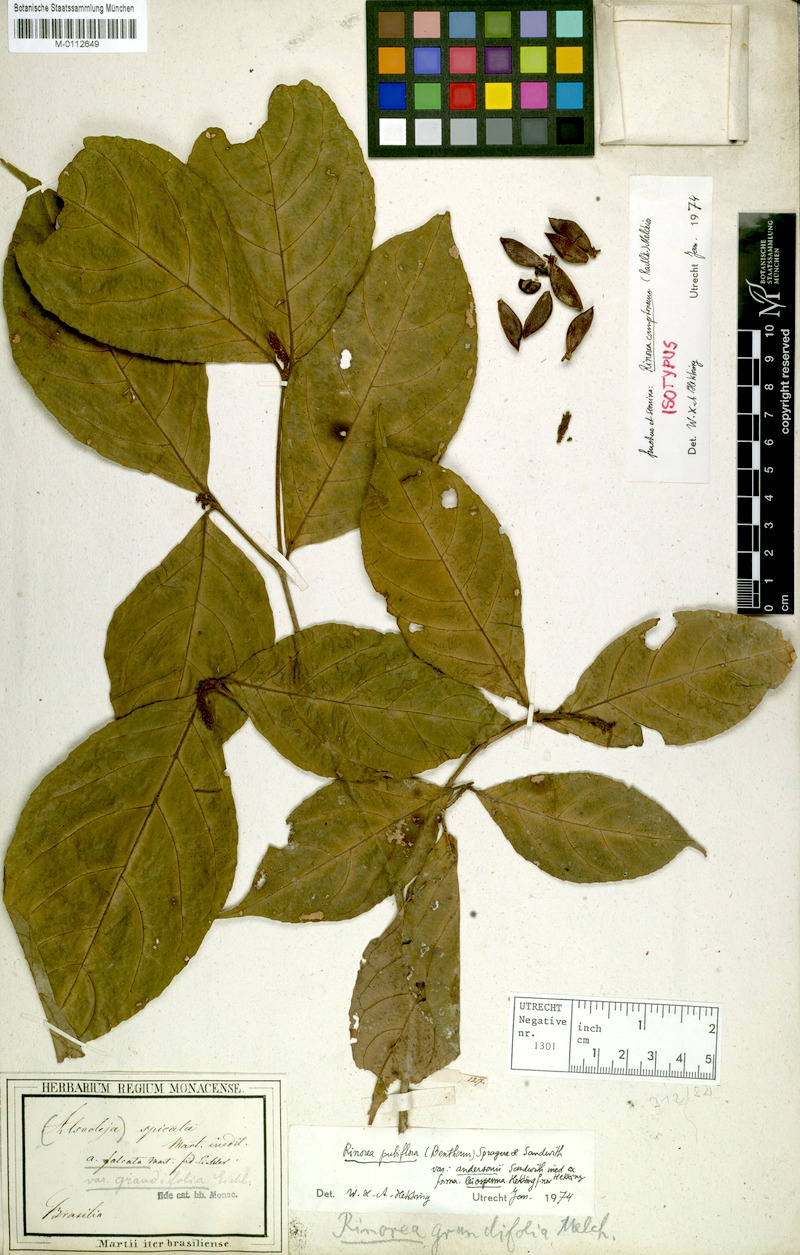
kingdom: Plantae
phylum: Tracheophyta
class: Magnoliopsida
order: Malpighiales
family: Violaceae
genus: Rinorea
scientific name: Rinorea pubiflora
